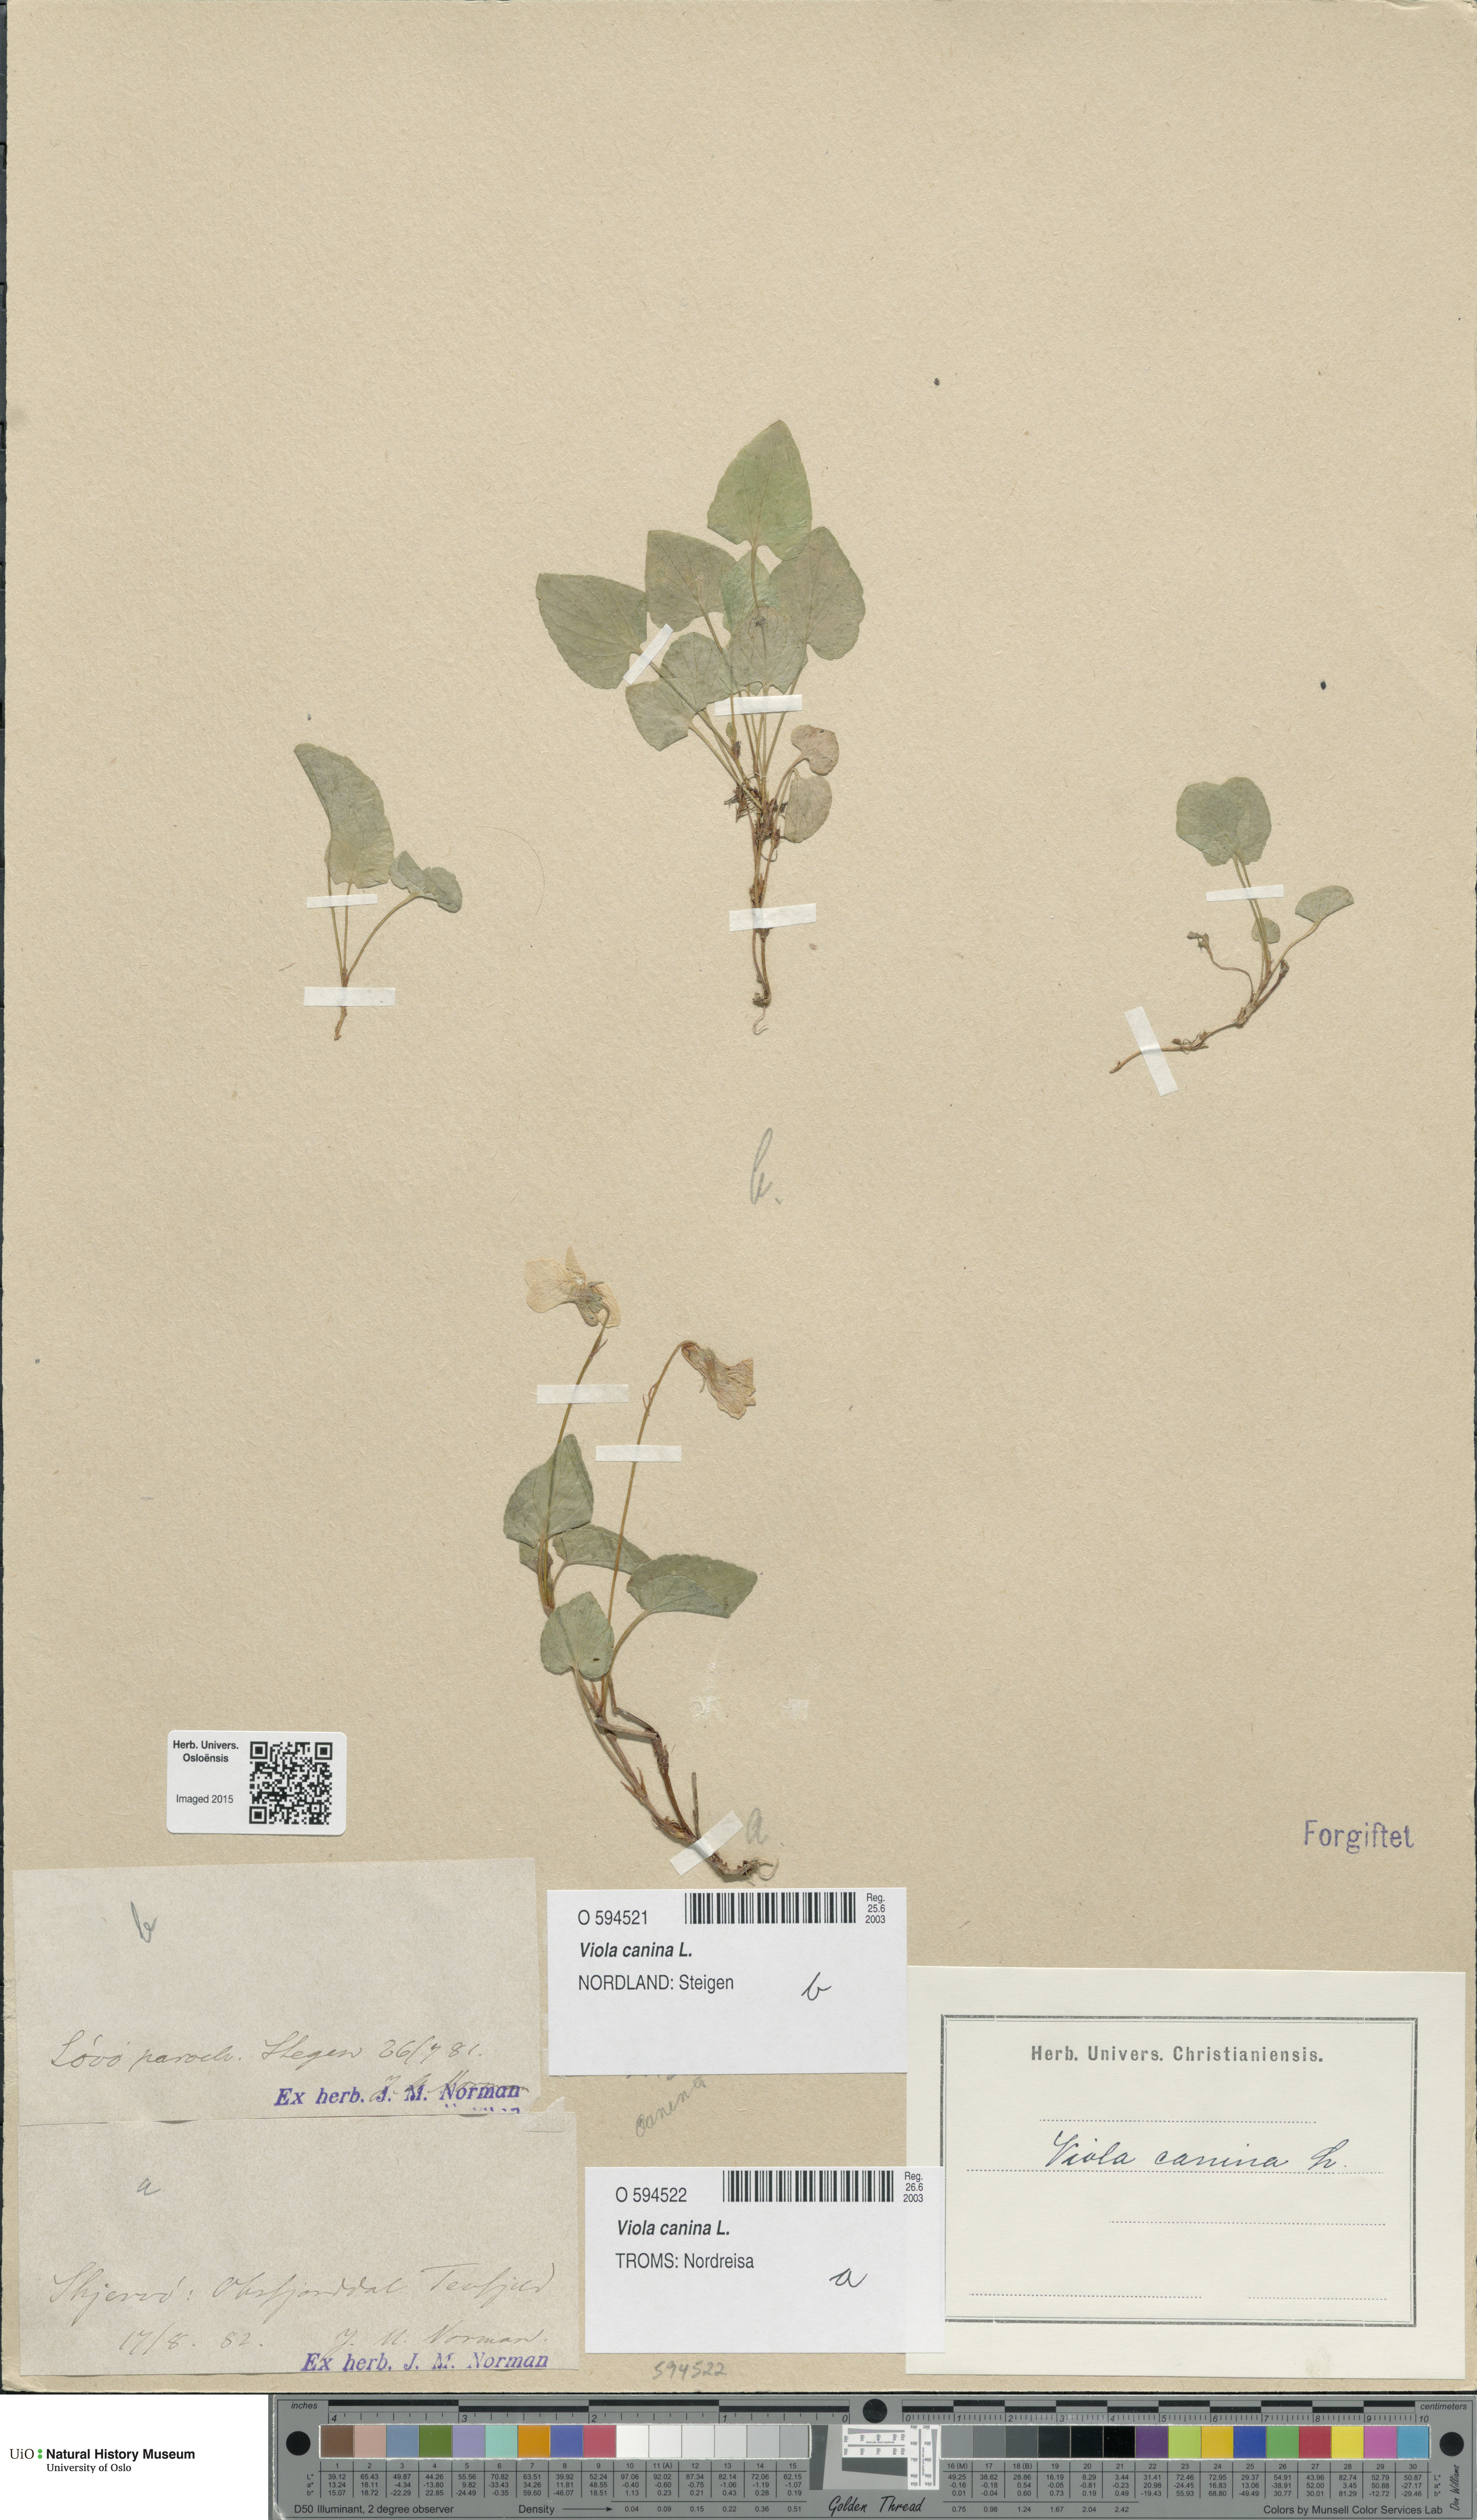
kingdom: Plantae
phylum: Tracheophyta
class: Magnoliopsida
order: Malpighiales
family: Violaceae
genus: Viola
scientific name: Viola canina
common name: Heath dog-violet
